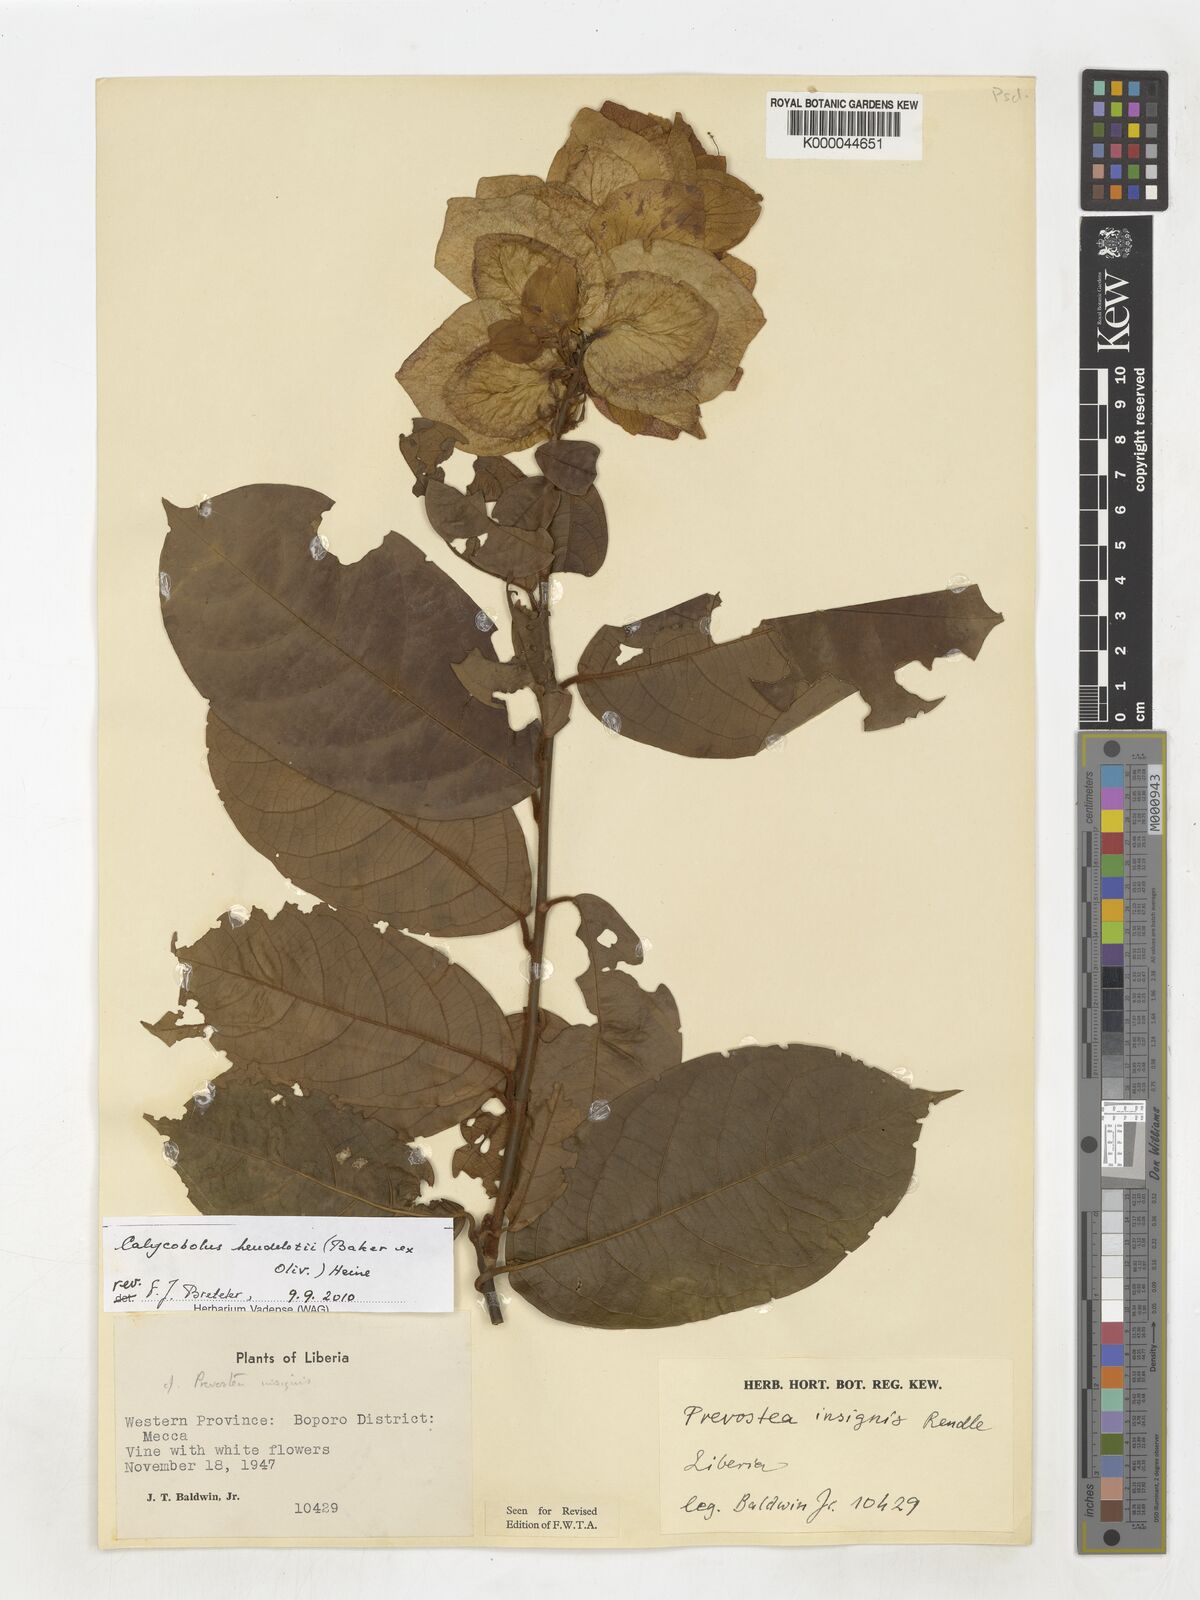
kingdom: Plantae
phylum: Tracheophyta
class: Magnoliopsida
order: Solanales
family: Convolvulaceae
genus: Calycobolus
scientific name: Calycobolus insignis
